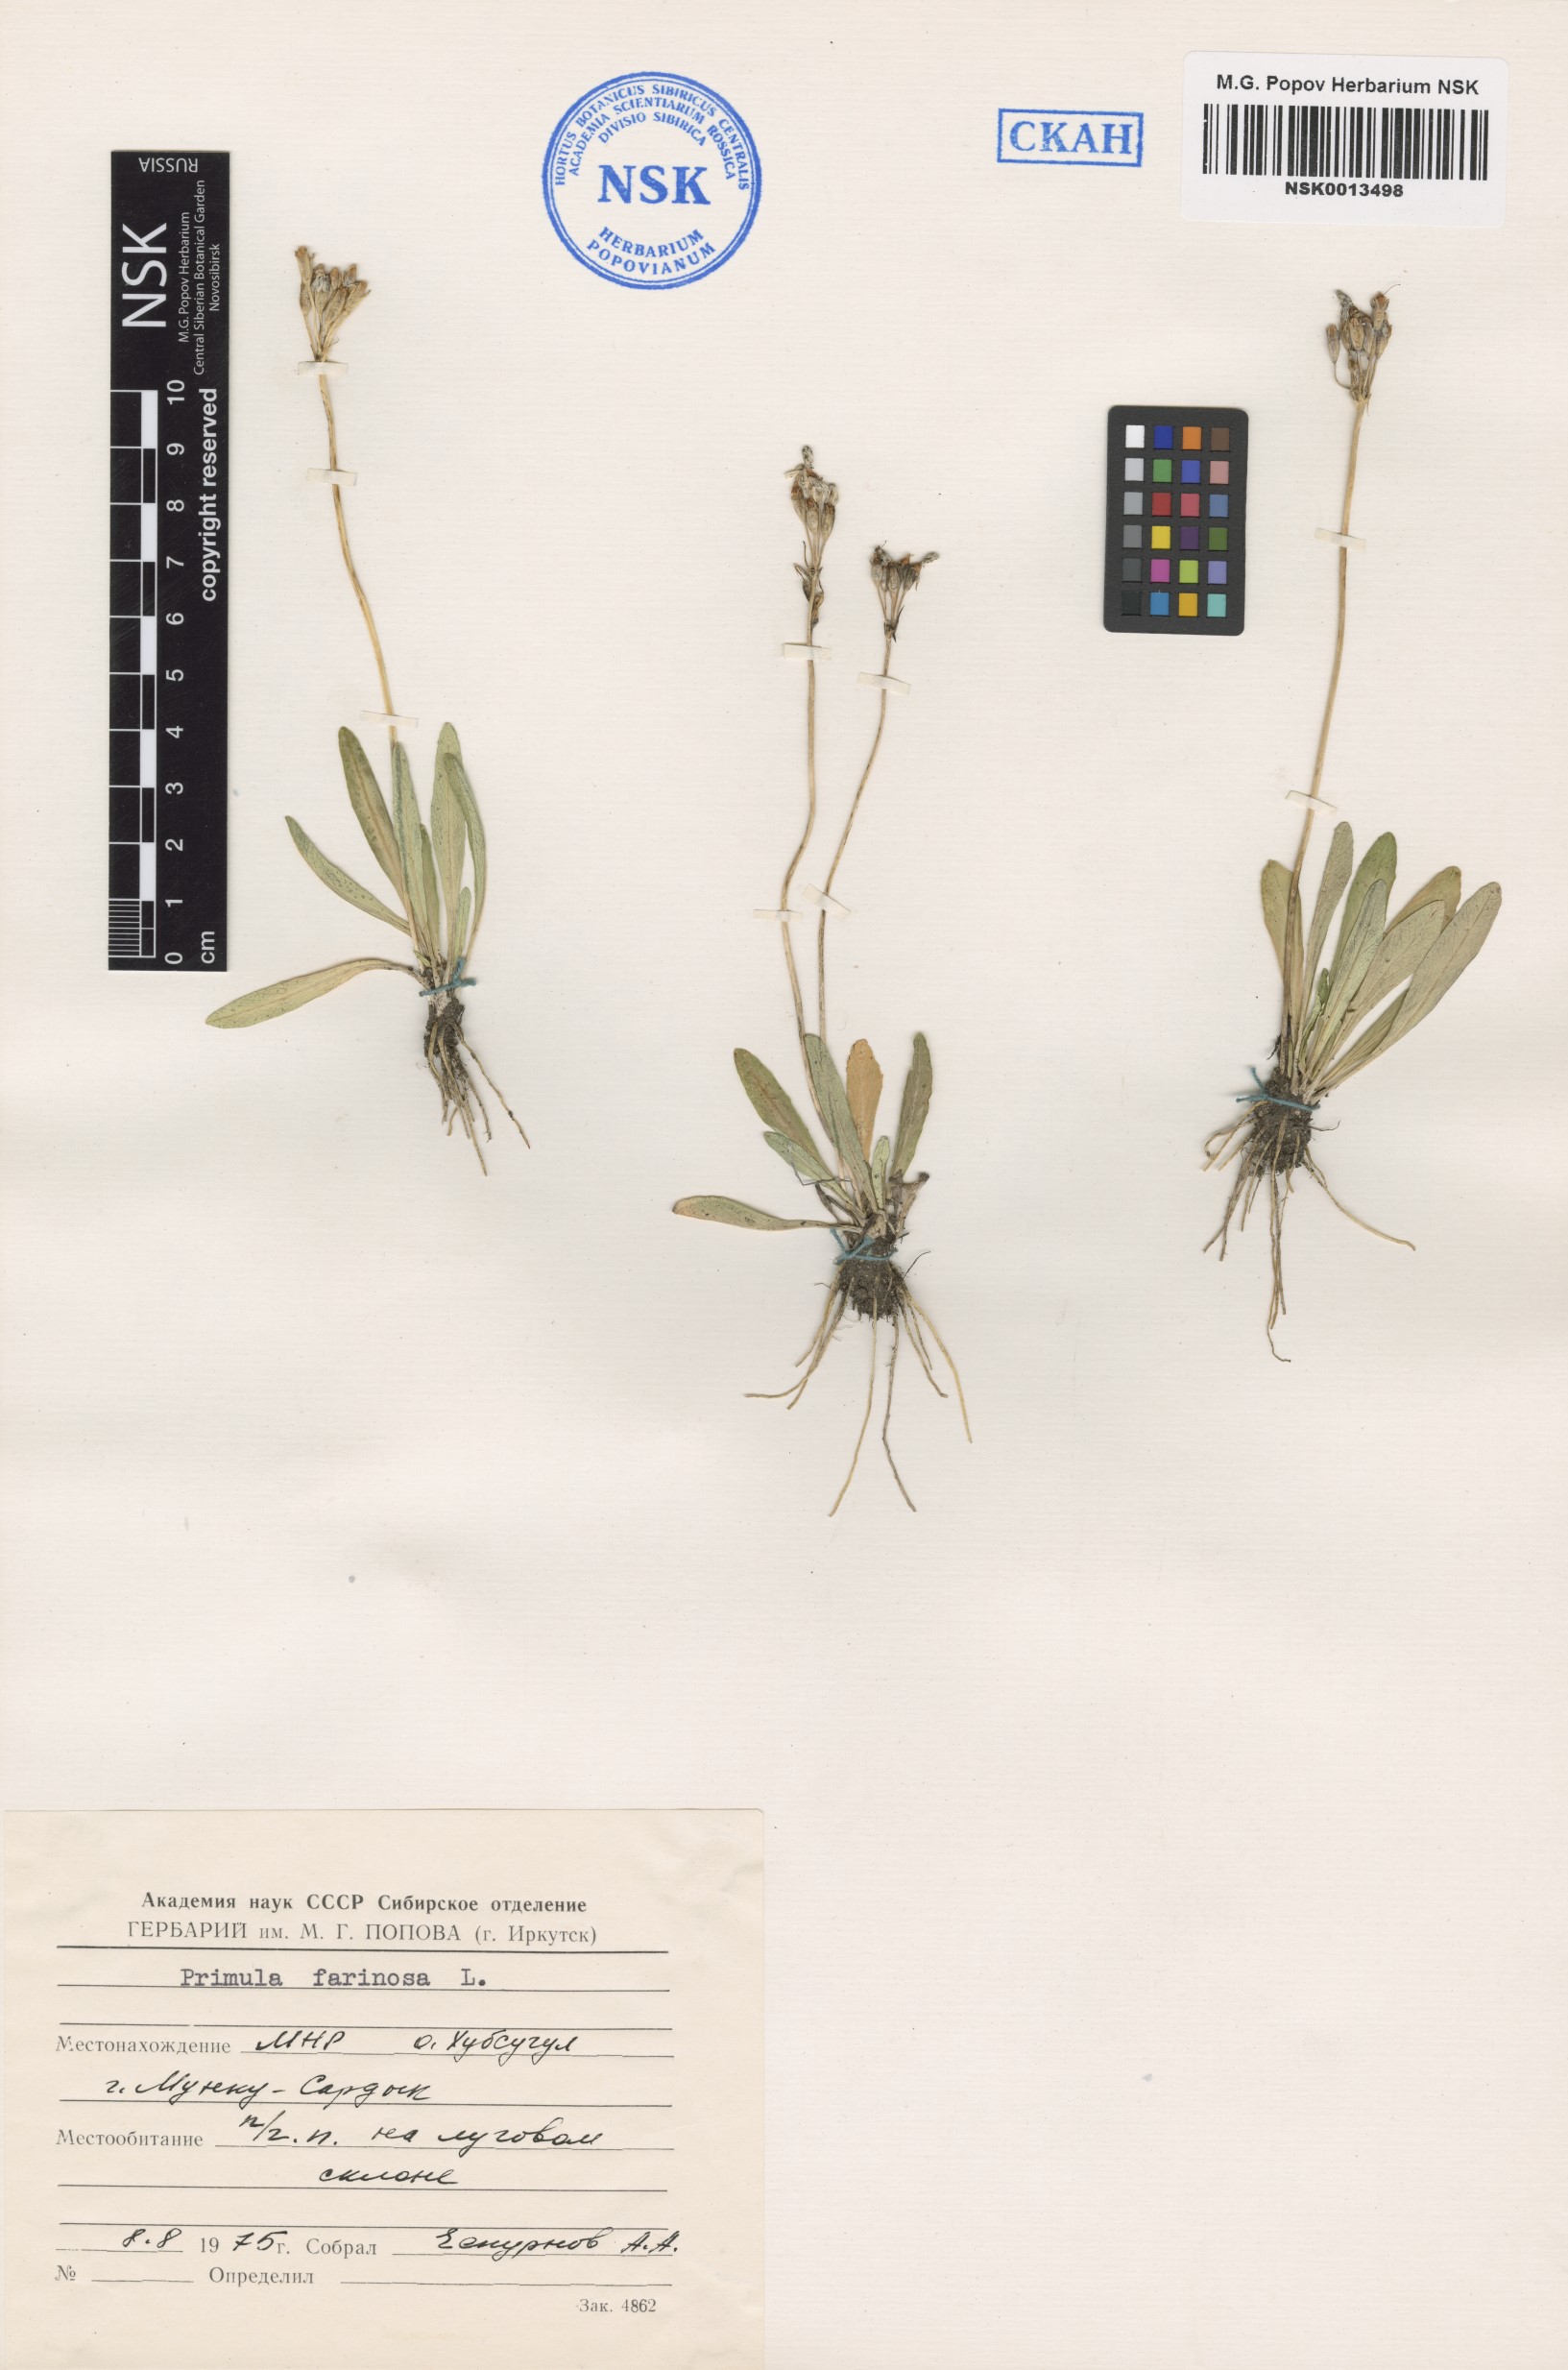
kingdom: Plantae
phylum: Tracheophyta
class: Magnoliopsida
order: Ericales
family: Primulaceae
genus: Primula
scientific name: Primula farinosa
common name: Bird's-eye primrose
